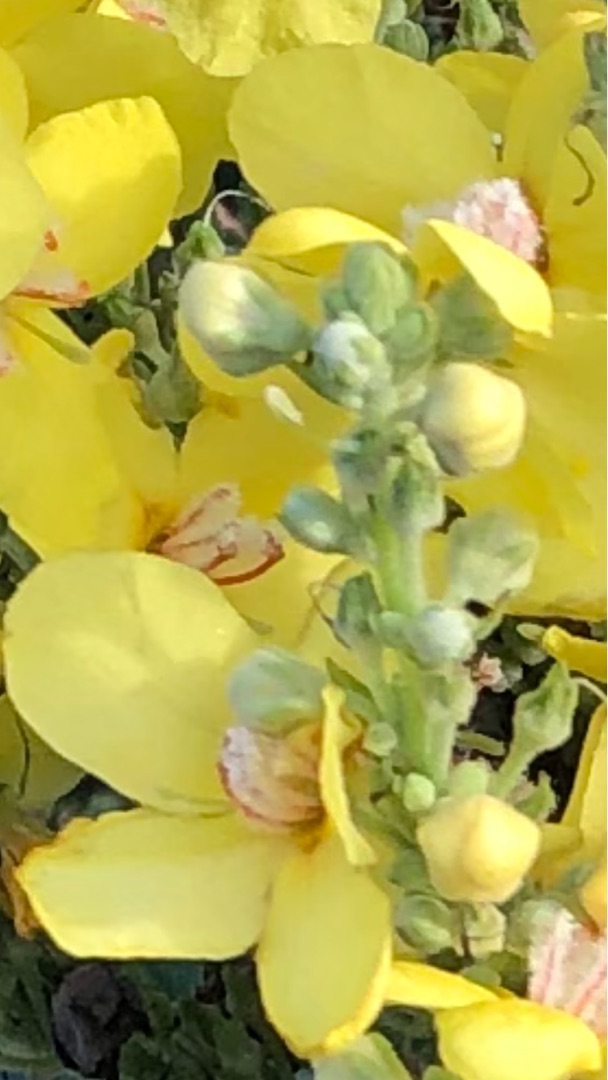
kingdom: Plantae
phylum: Tracheophyta
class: Magnoliopsida
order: Lamiales
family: Scrophulariaceae
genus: Verbascum
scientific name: Verbascum speciosum
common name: Kandelaber-kongelys
